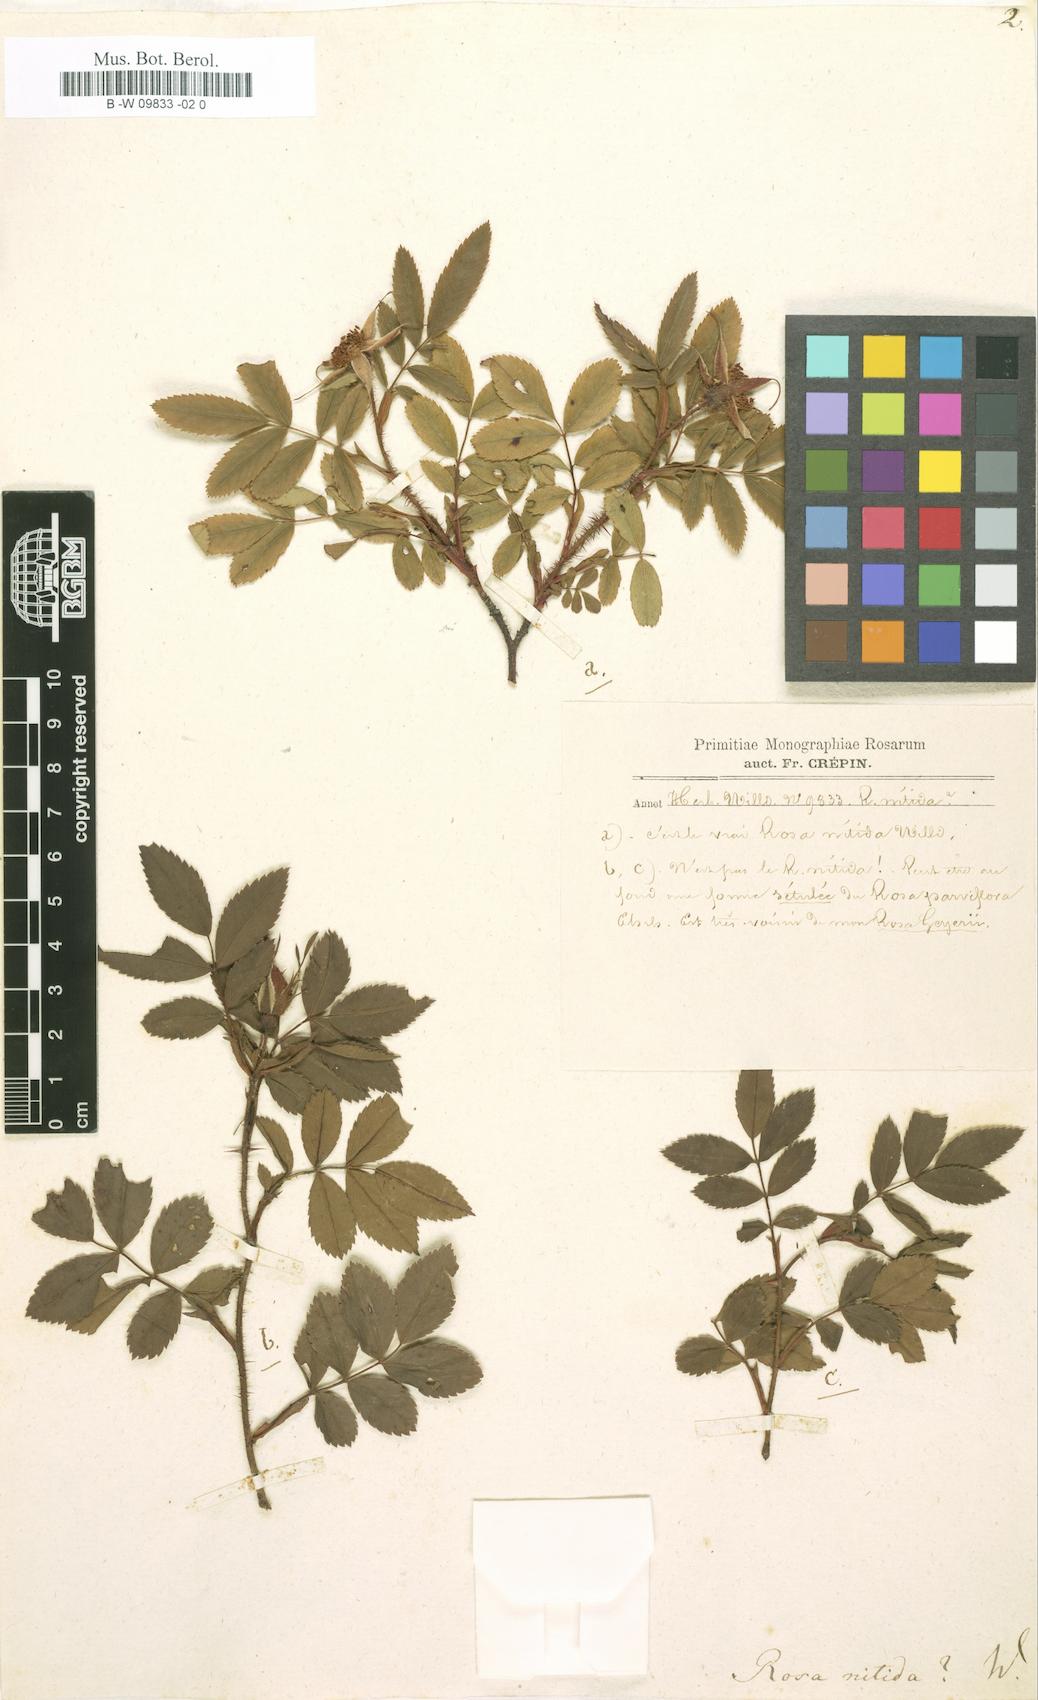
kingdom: Plantae
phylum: Tracheophyta
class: Magnoliopsida
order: Rosales
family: Rosaceae
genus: Rosa
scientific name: Rosa nitida
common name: New england rose
